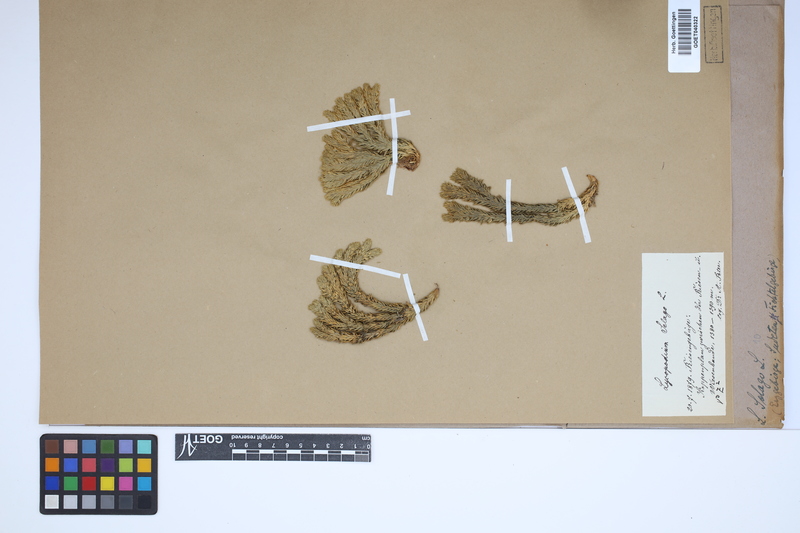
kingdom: Plantae
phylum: Tracheophyta
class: Lycopodiopsida
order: Lycopodiales
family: Lycopodiaceae
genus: Huperzia
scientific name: Huperzia selago
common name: Northern firmoss
